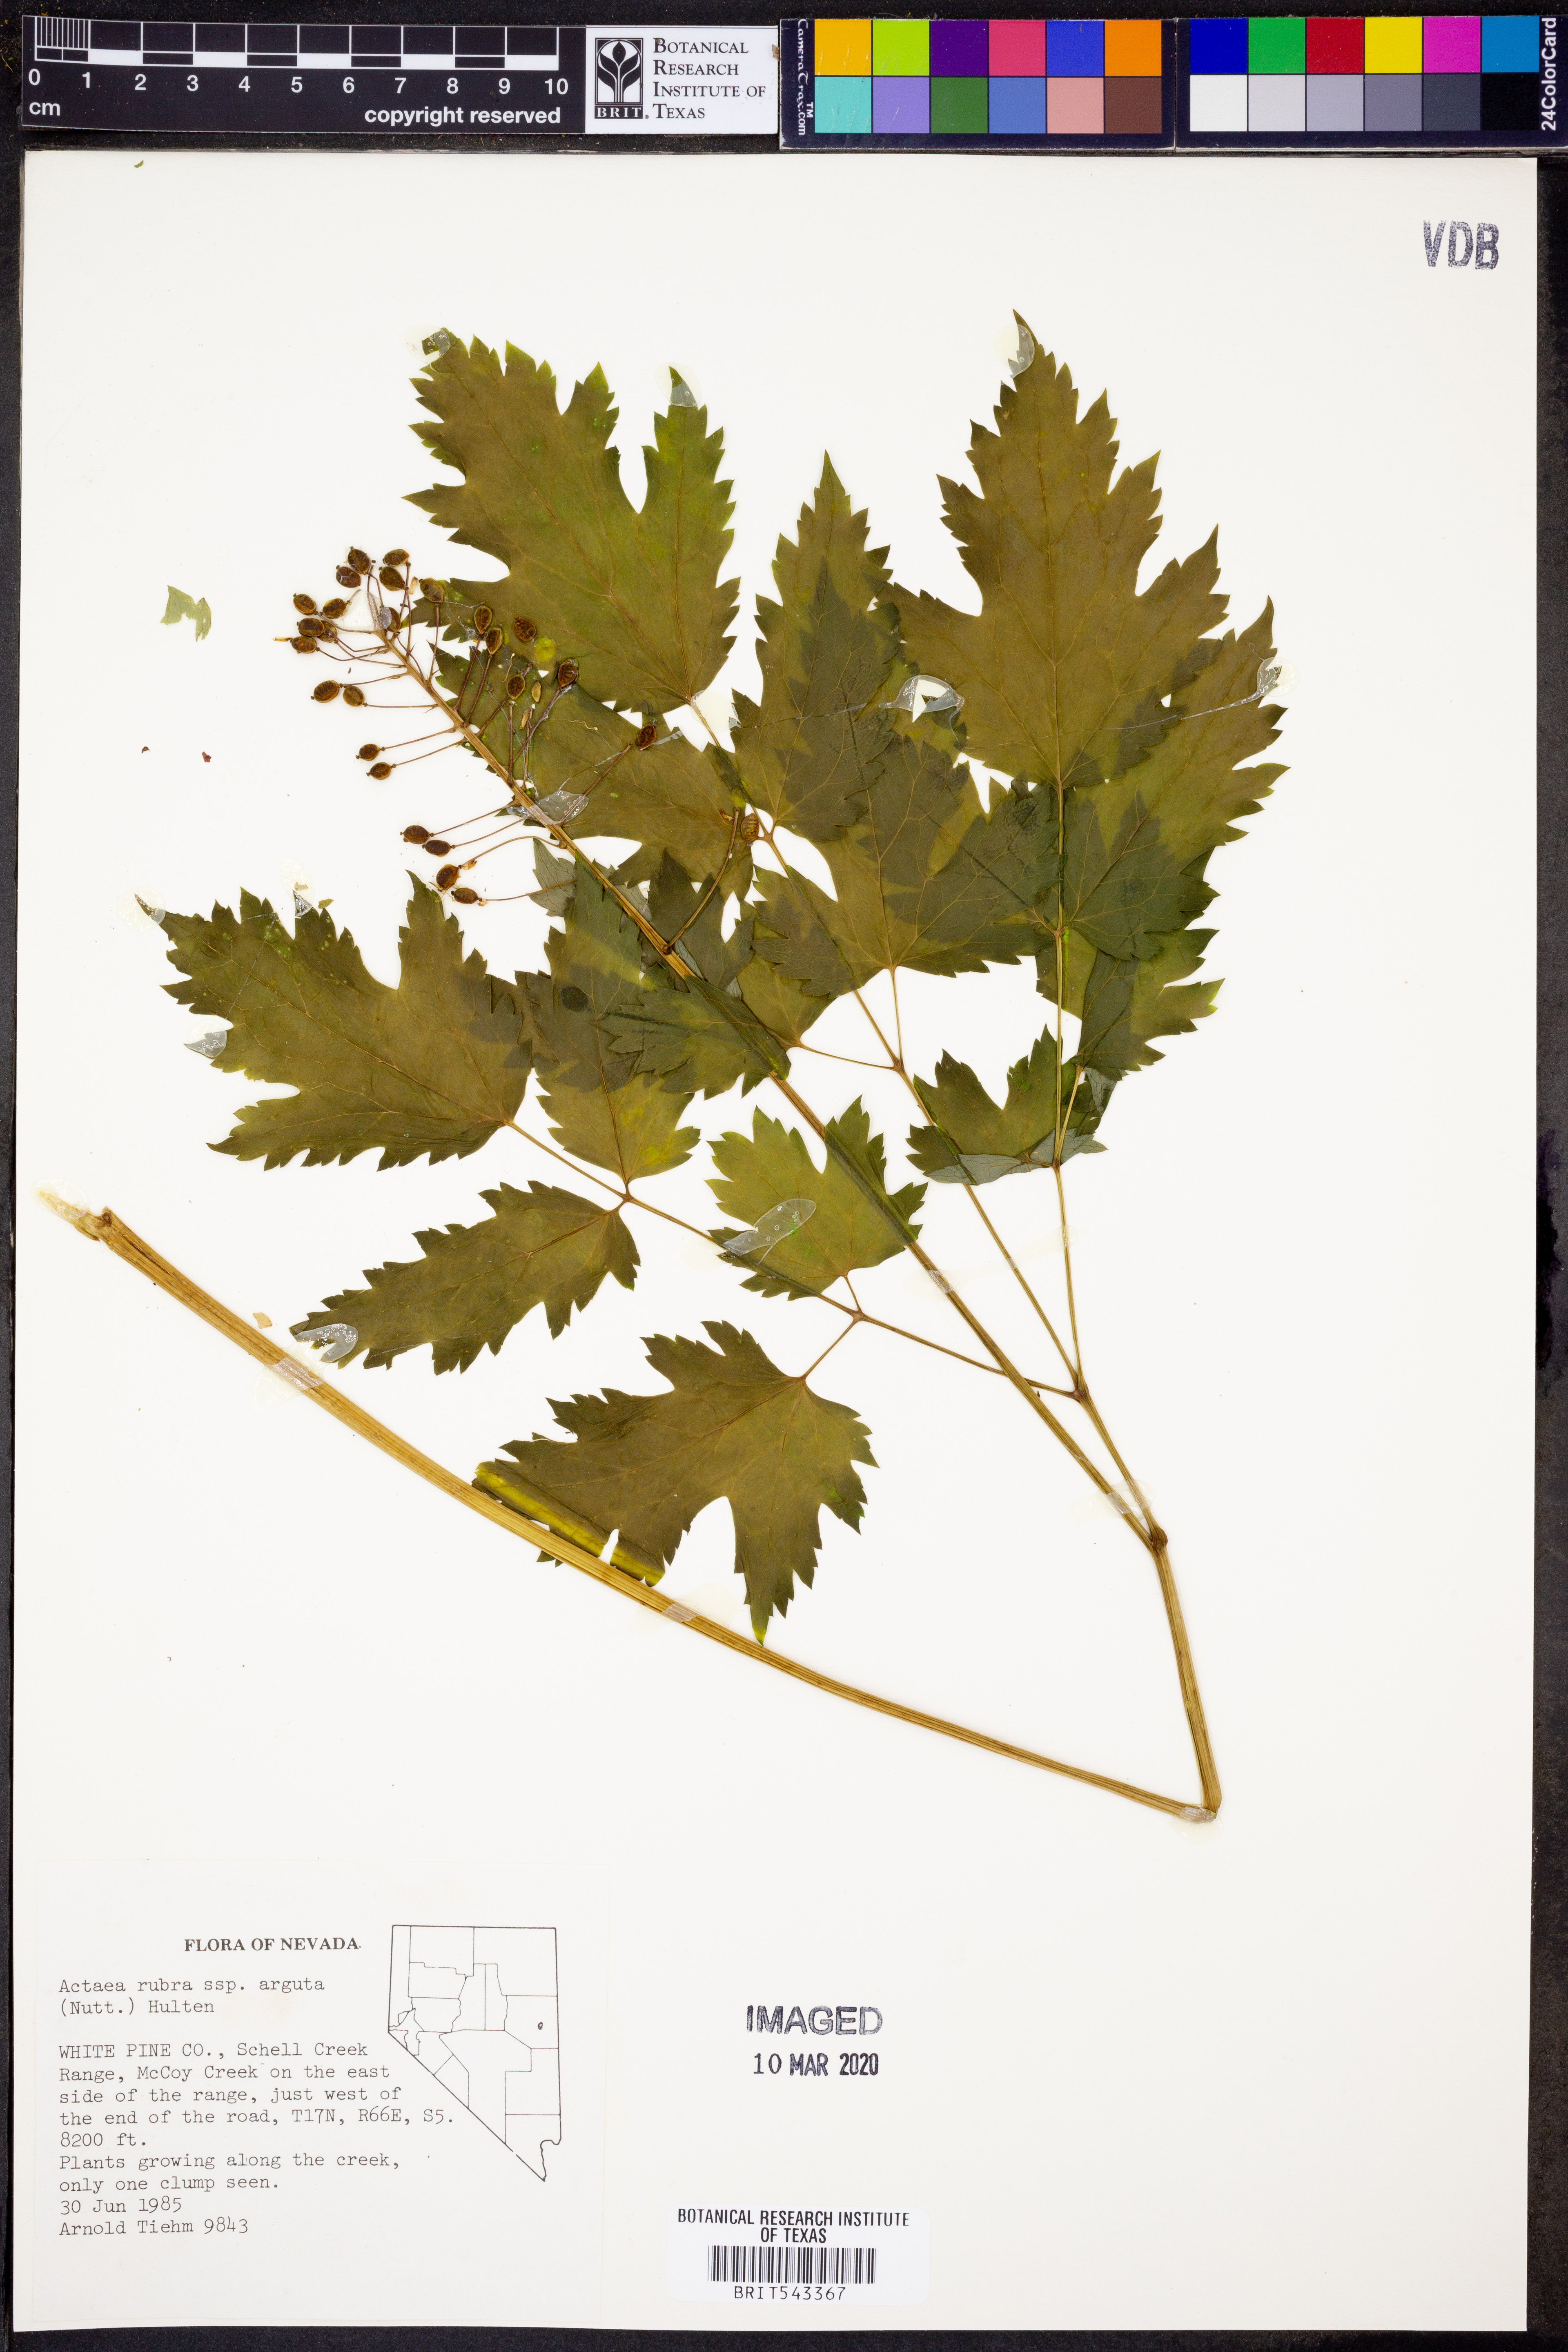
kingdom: Plantae
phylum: Tracheophyta
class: Magnoliopsida
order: Ranunculales
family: Ranunculaceae
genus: Actaea
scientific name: Actaea rubra
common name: Red baneberry
